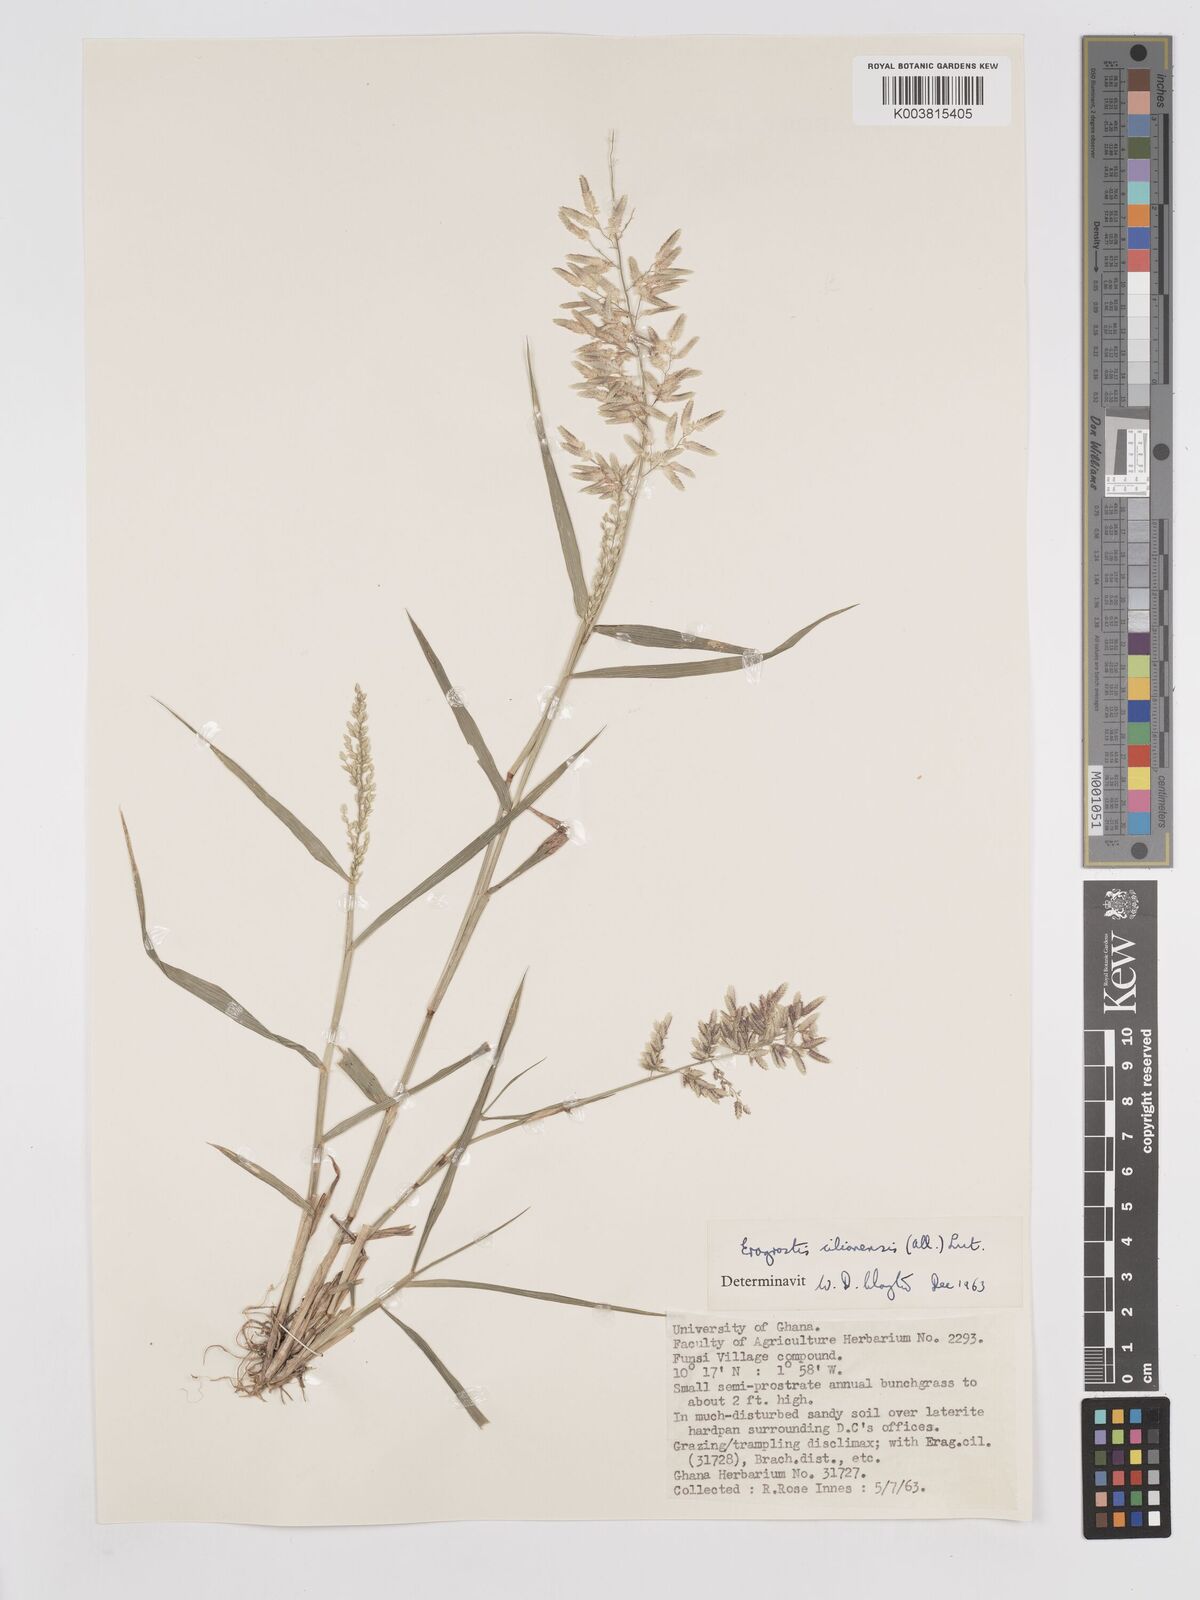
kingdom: Plantae
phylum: Tracheophyta
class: Liliopsida
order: Poales
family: Poaceae
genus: Eragrostis
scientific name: Eragrostis cilianensis
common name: Stinkgrass
